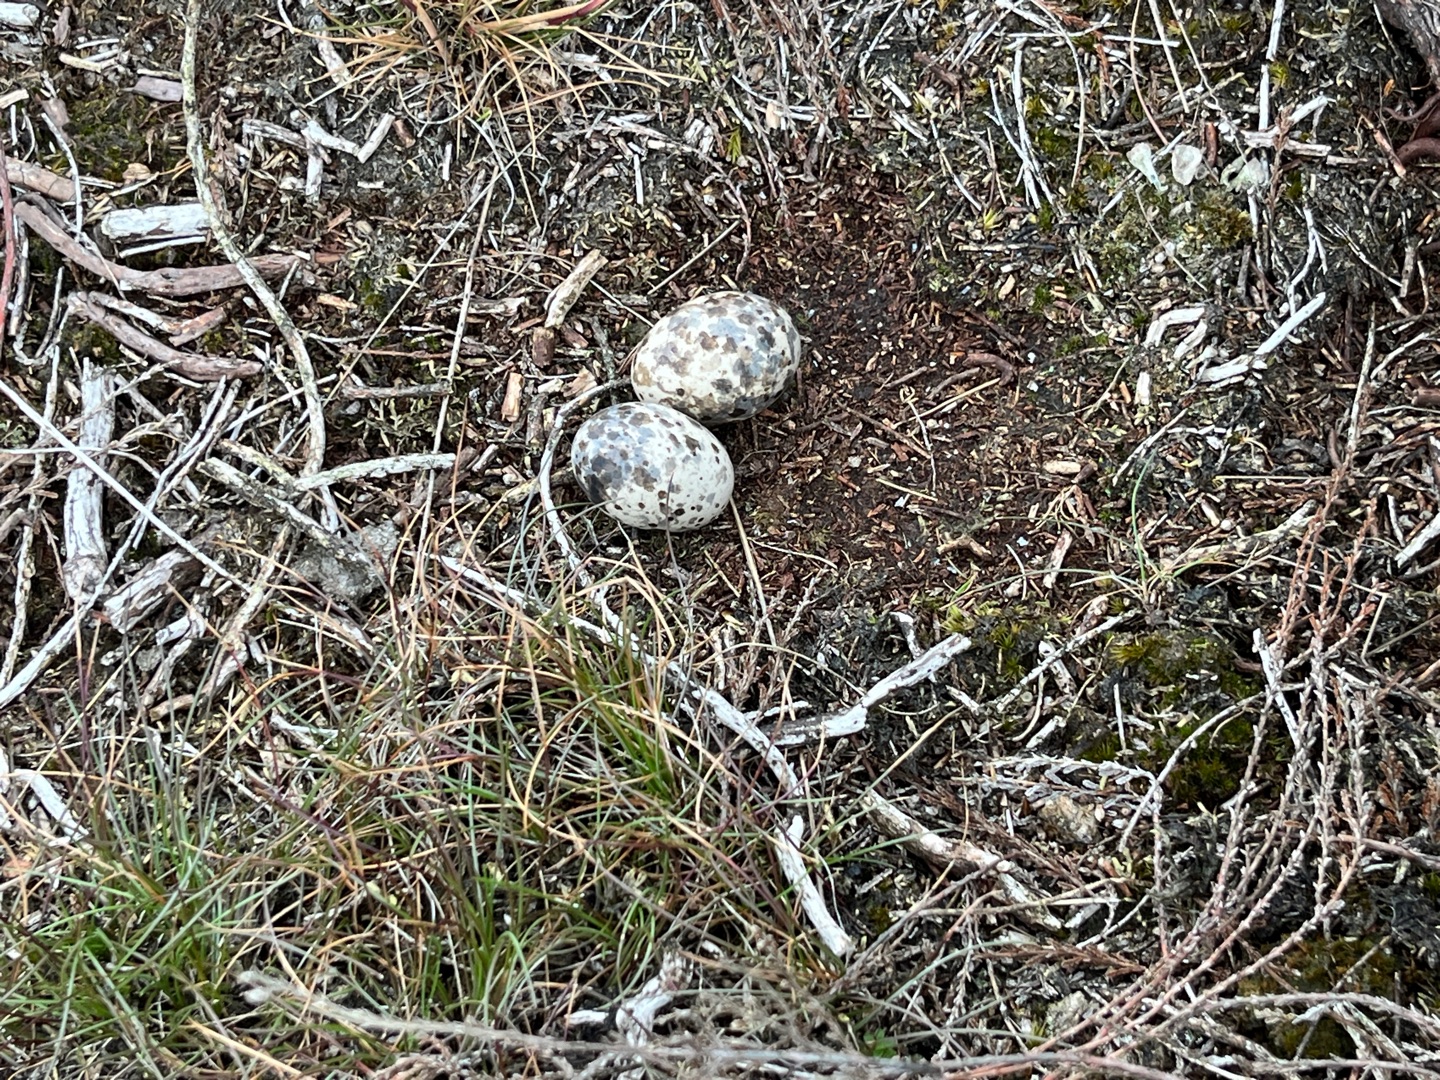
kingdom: Animalia
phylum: Chordata
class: Aves
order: Caprimulgiformes
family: Caprimulgidae
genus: Caprimulgus
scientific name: Caprimulgus europaeus
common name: Natravn
